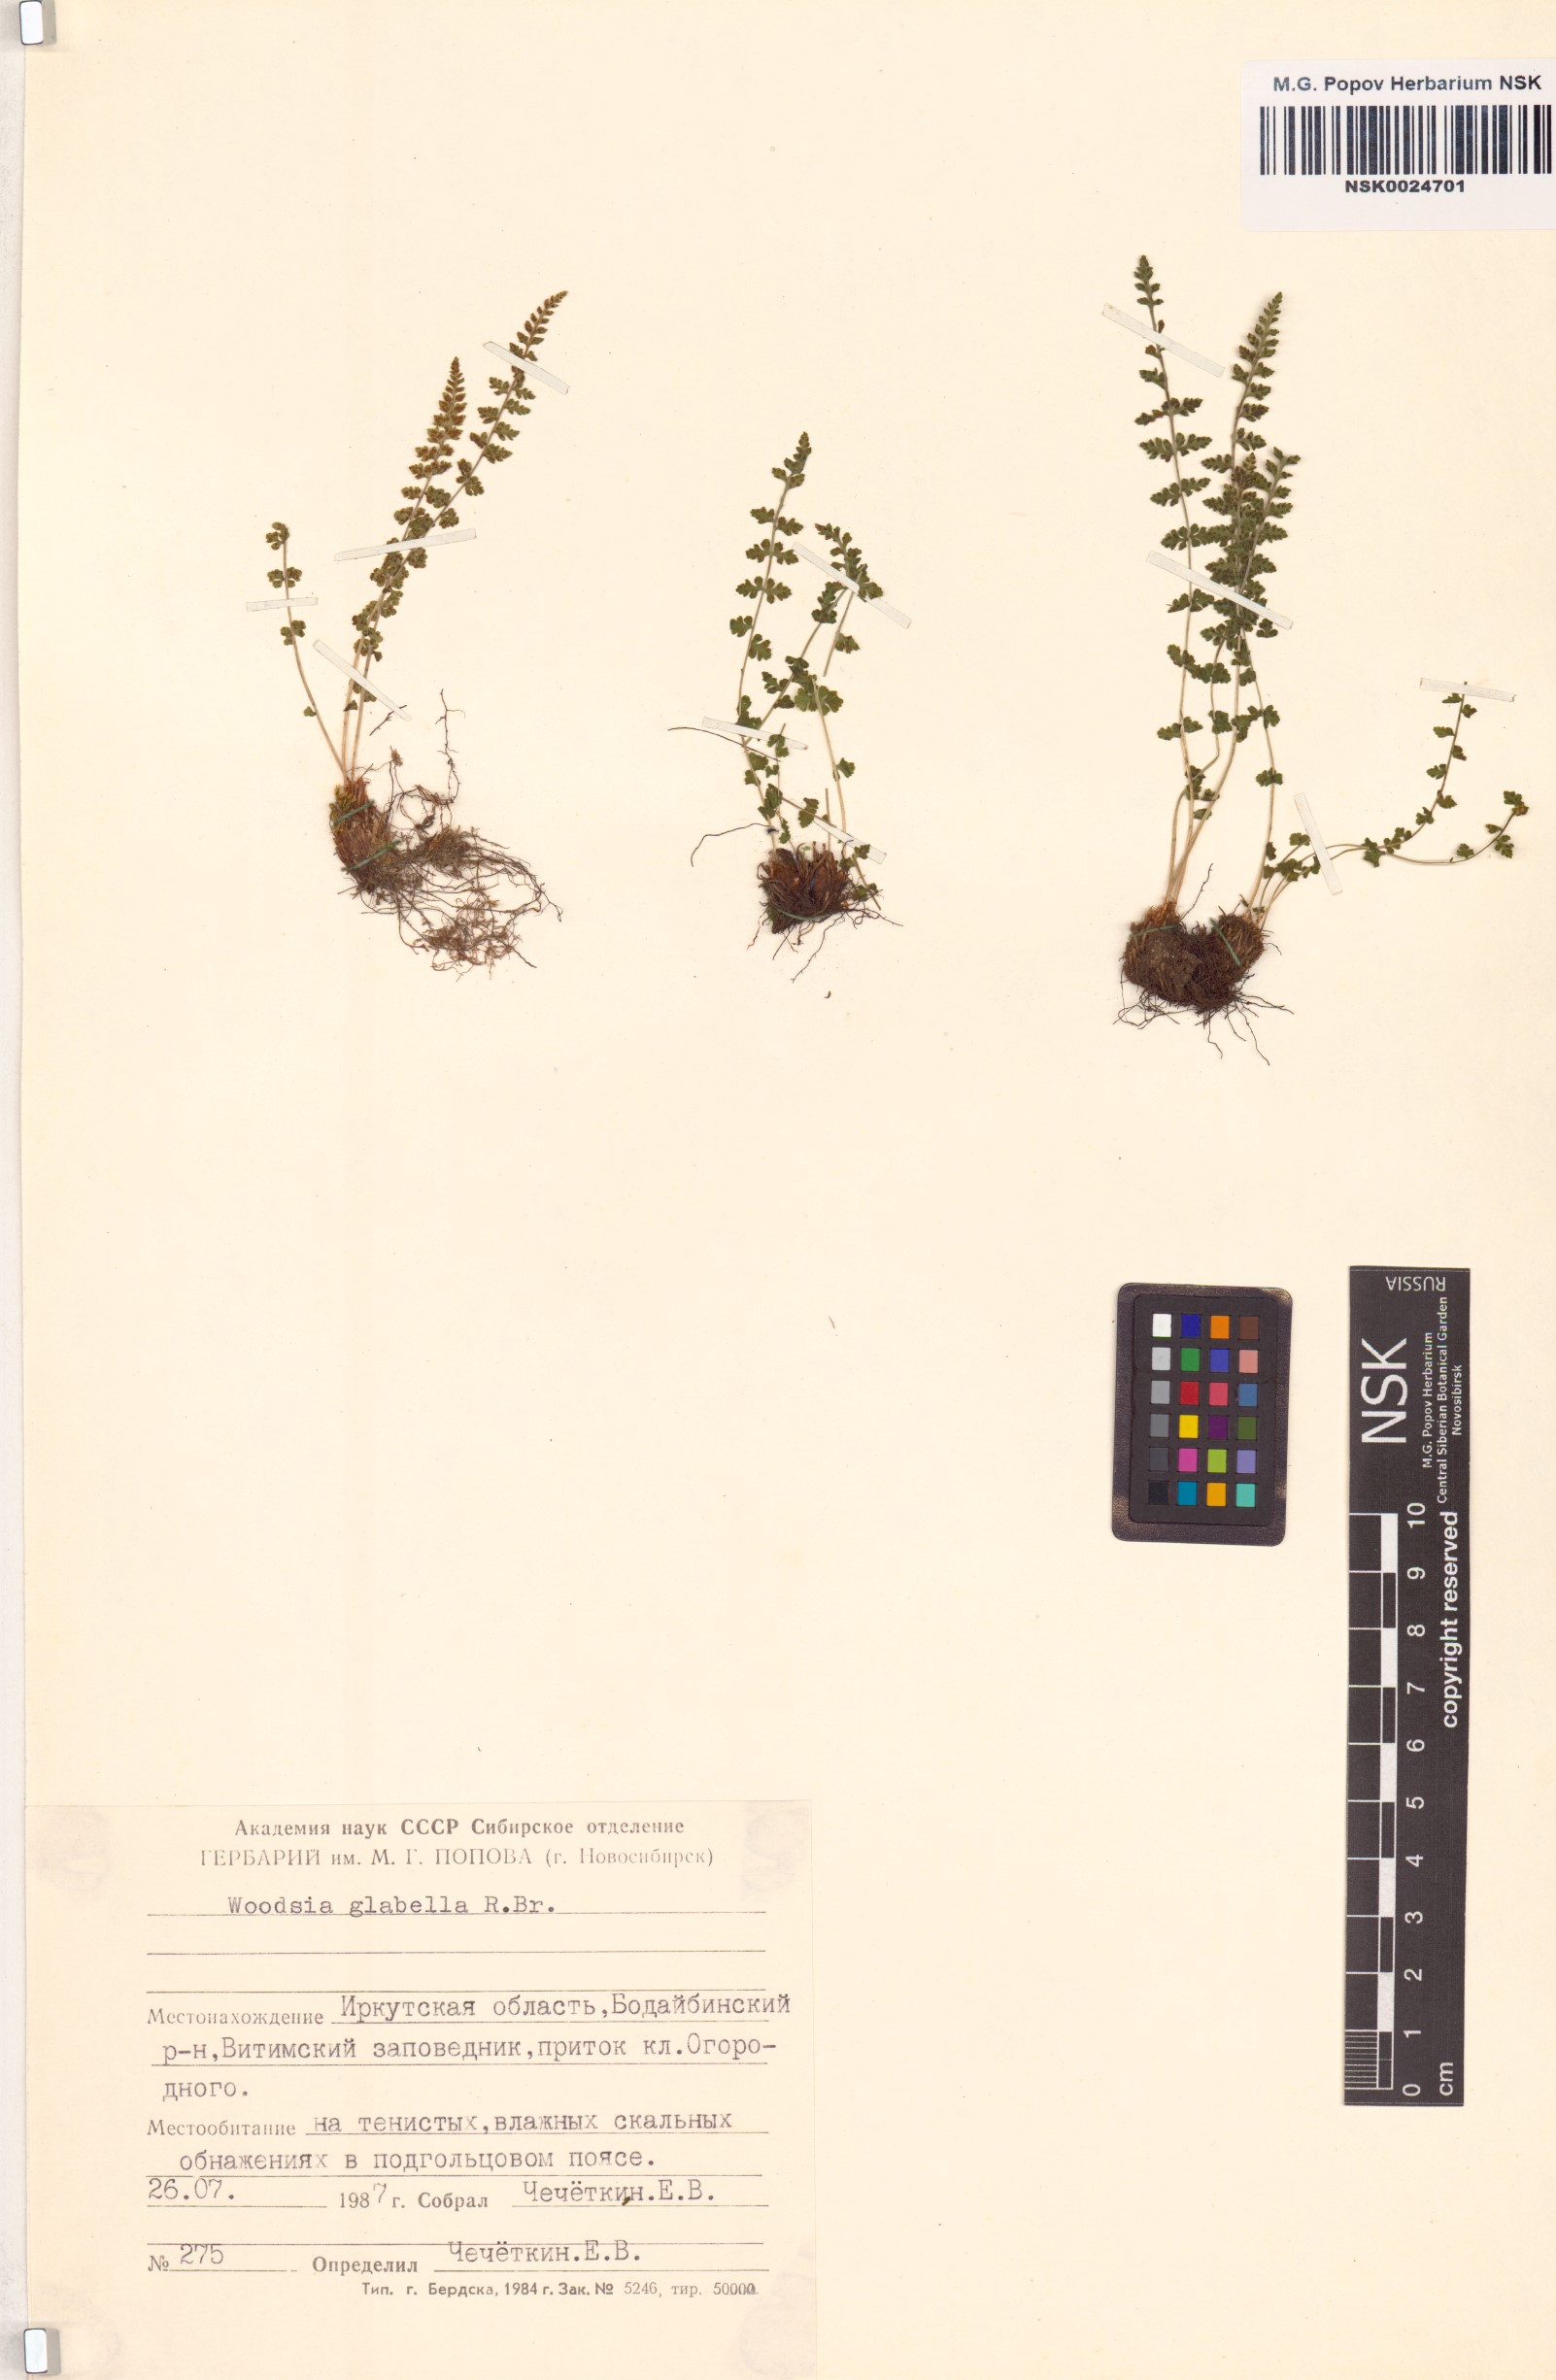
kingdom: Plantae
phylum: Tracheophyta
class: Polypodiopsida
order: Polypodiales
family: Woodsiaceae
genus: Woodsia
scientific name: Woodsia glabella
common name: Smooth woodsia
